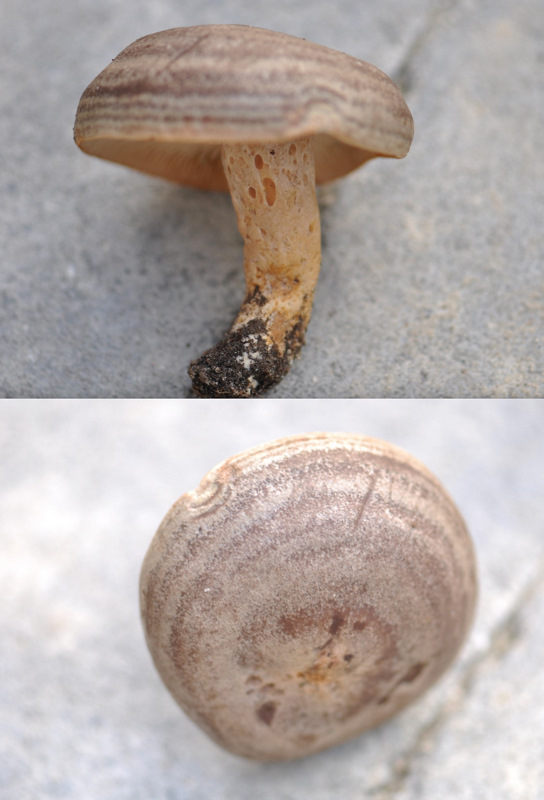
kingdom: Fungi
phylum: Basidiomycota
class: Agaricomycetes
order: Russulales
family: Russulaceae
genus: Lactarius
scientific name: Lactarius circellatus
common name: avnbøg-mælkehat
